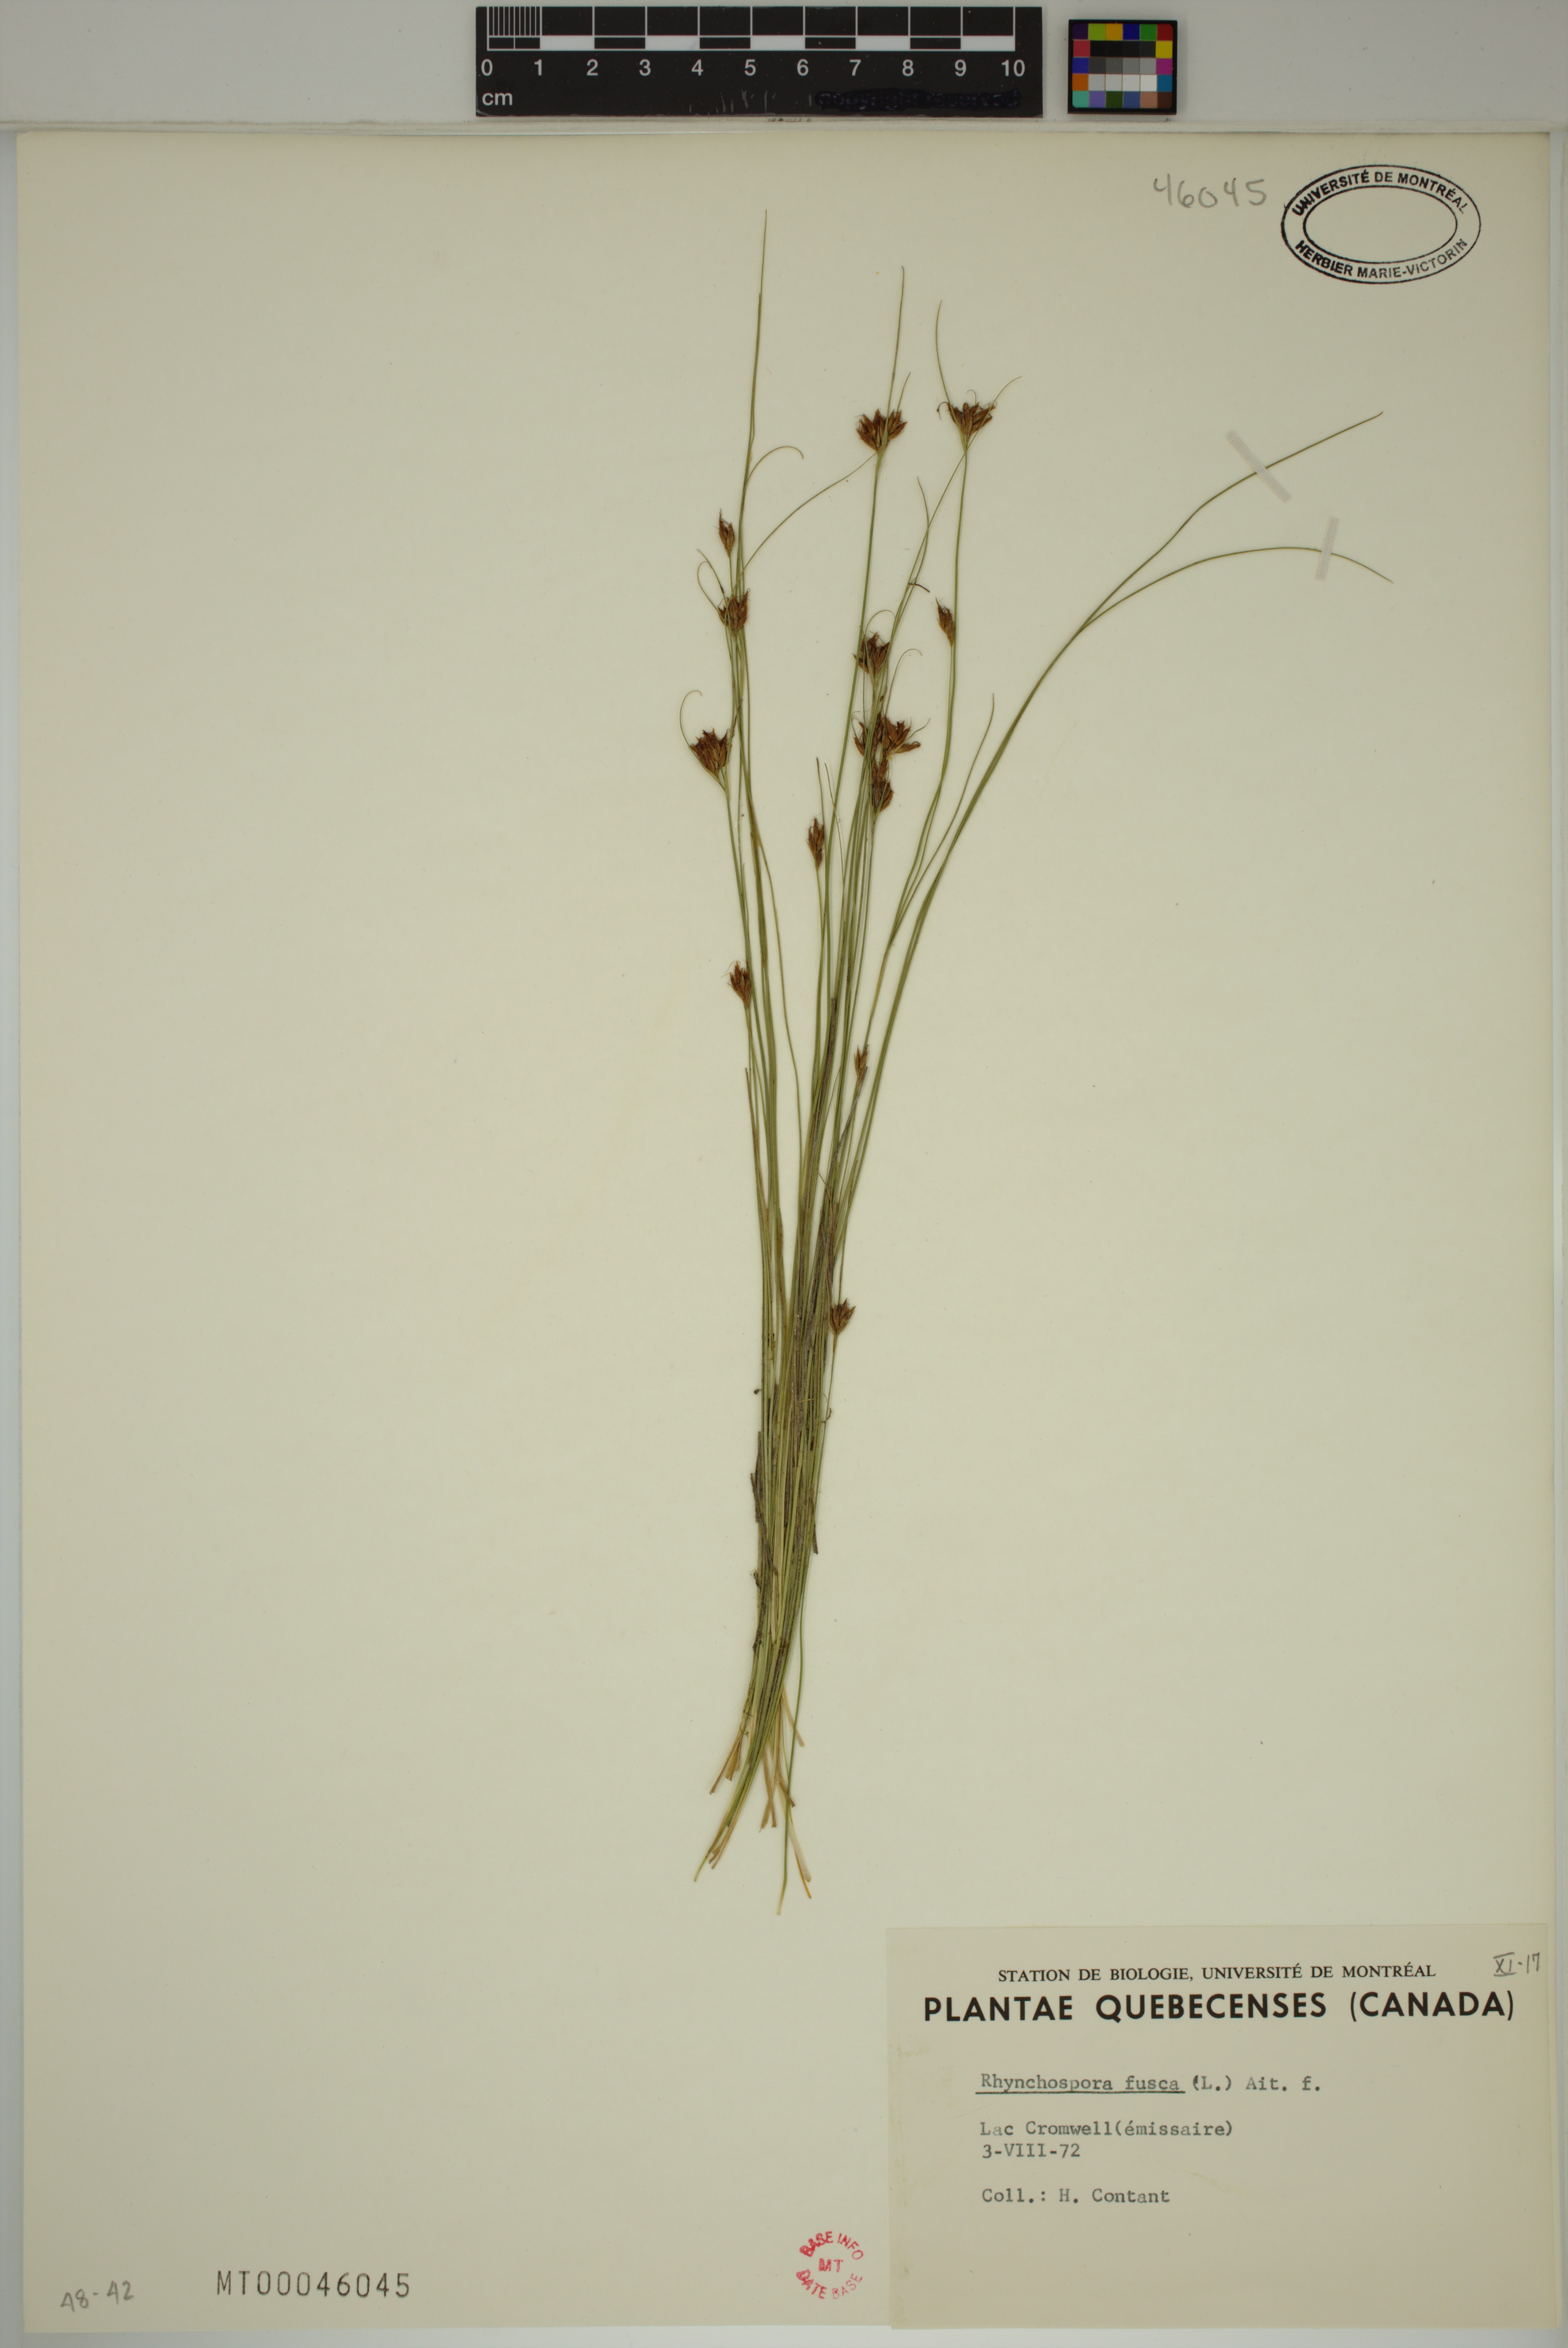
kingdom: Plantae
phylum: Tracheophyta
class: Liliopsida
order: Poales
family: Cyperaceae
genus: Rhynchospora
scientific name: Rhynchospora fusca
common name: Brown beak-sedge
